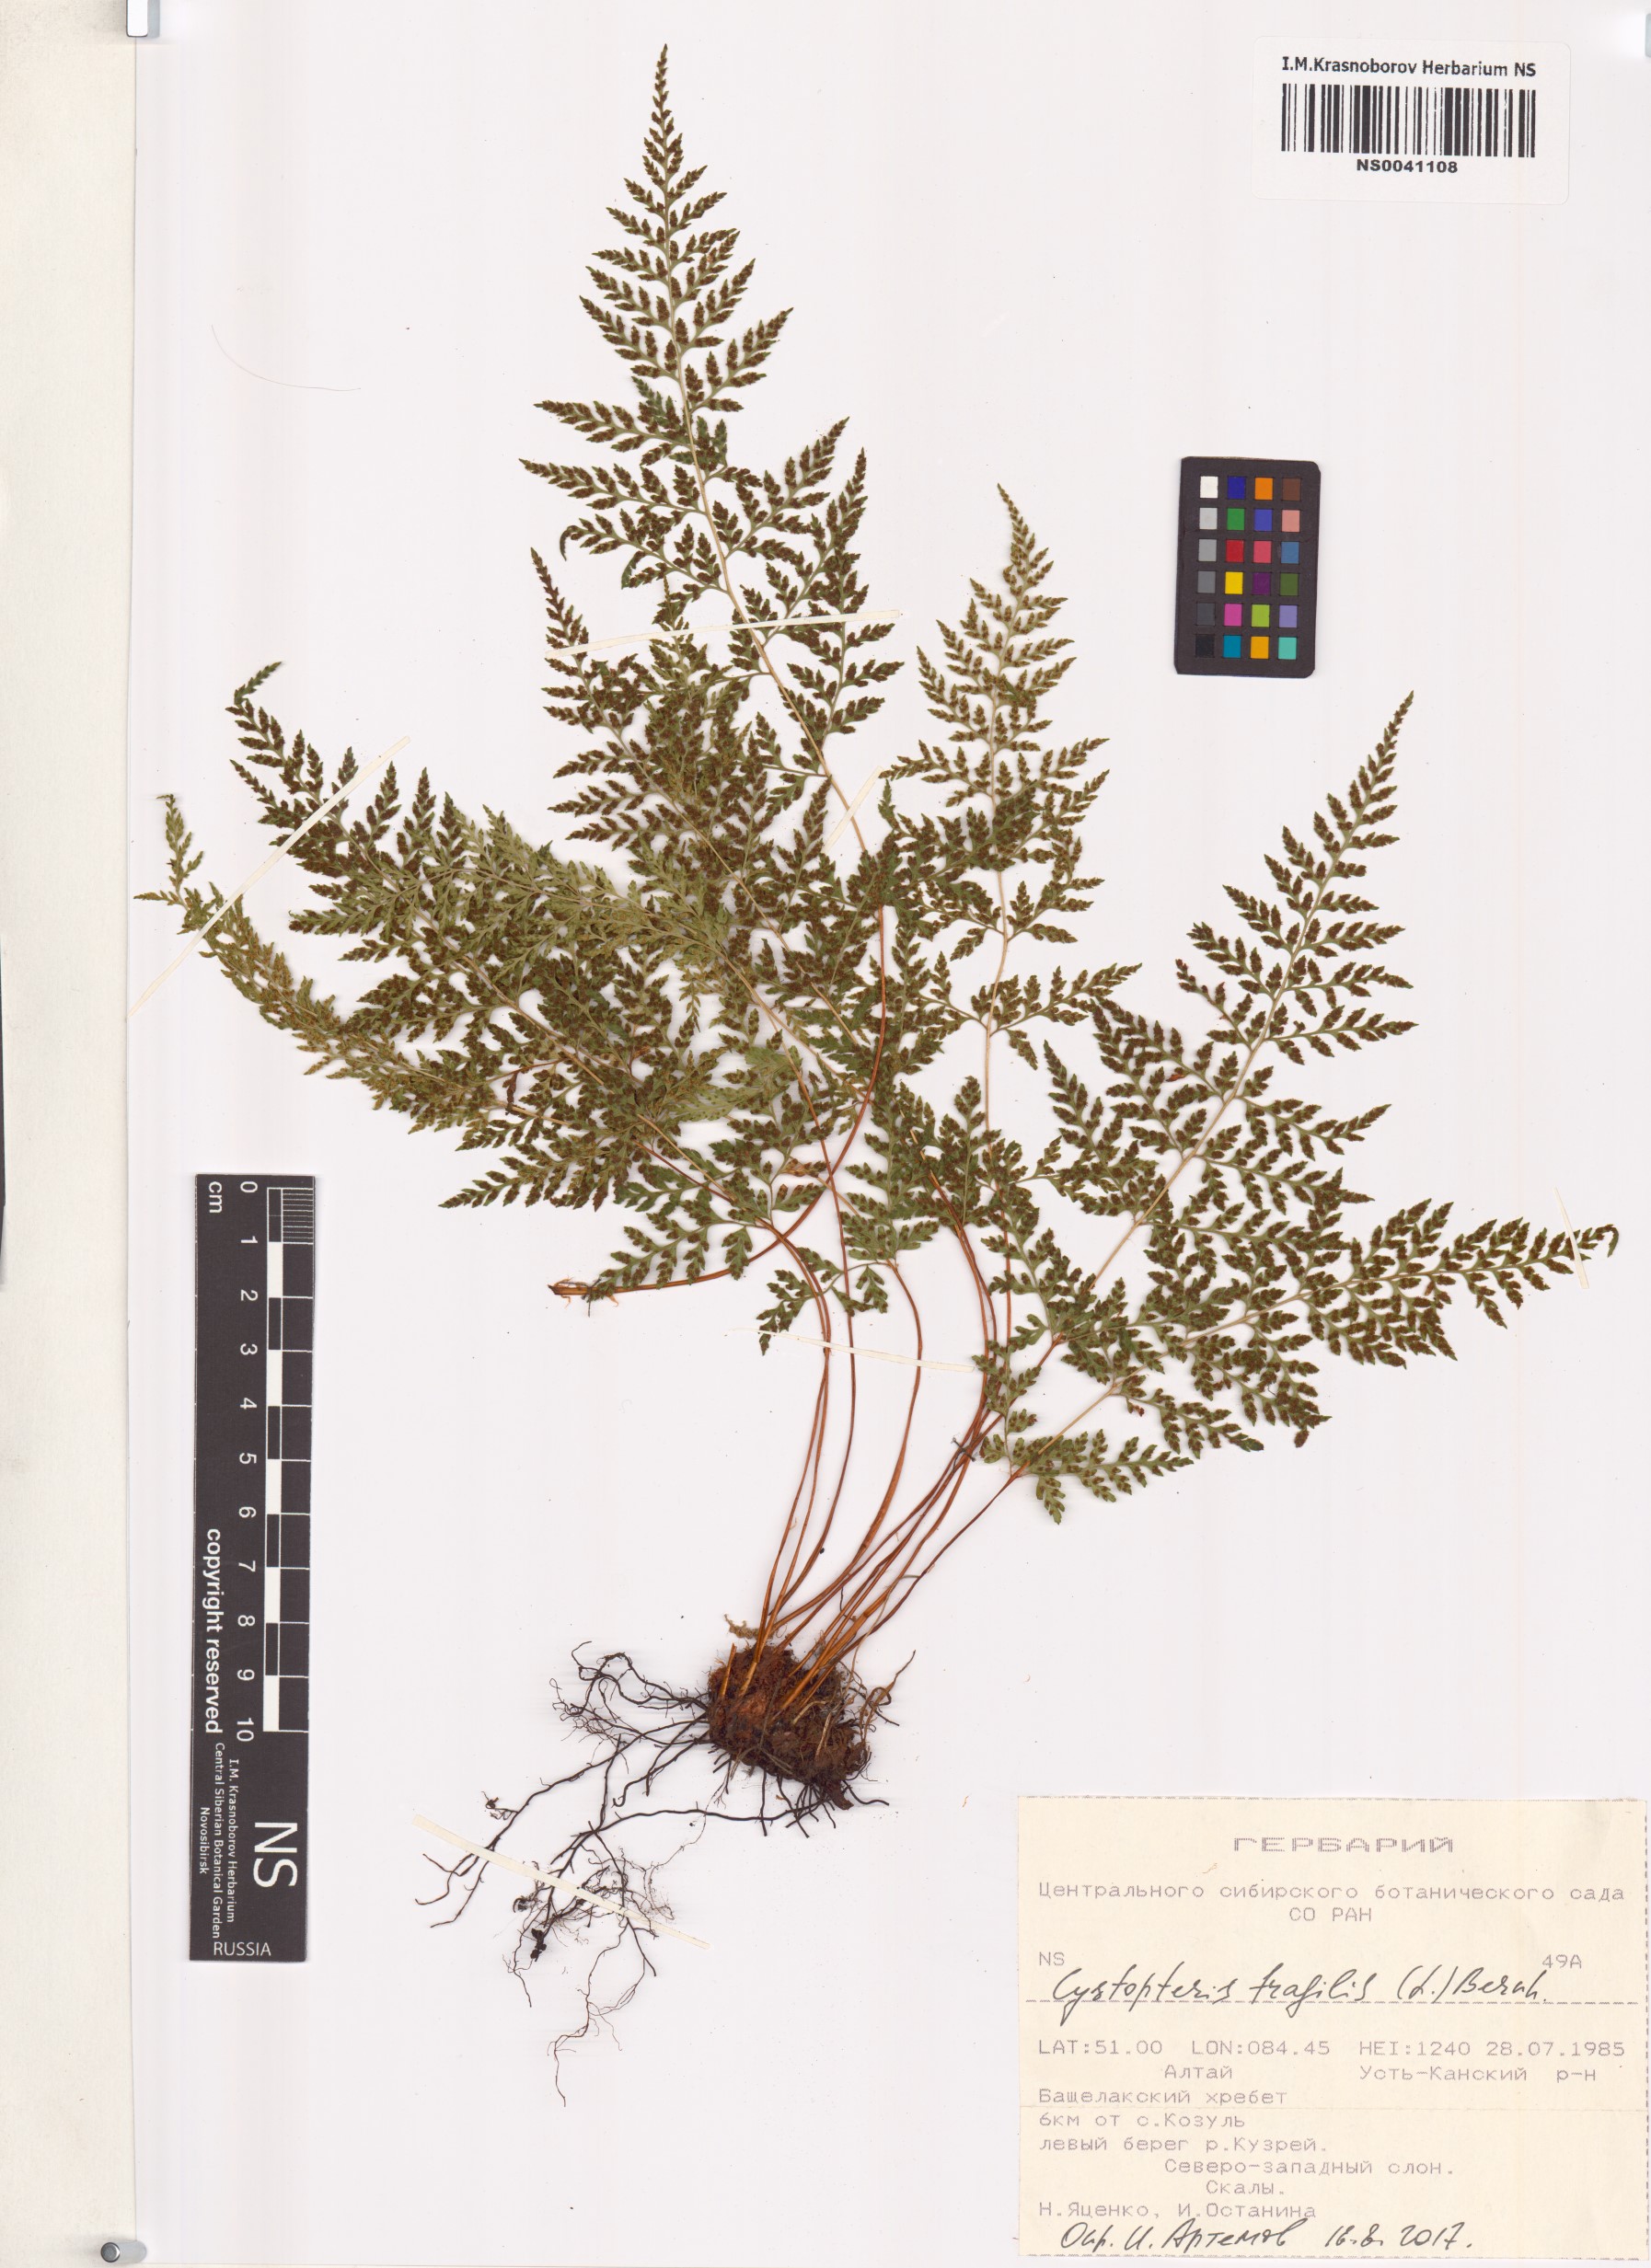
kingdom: Plantae
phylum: Tracheophyta
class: Polypodiopsida
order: Polypodiales
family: Cystopteridaceae
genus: Cystopteris
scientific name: Cystopteris fragilis
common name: Brittle bladder fern
